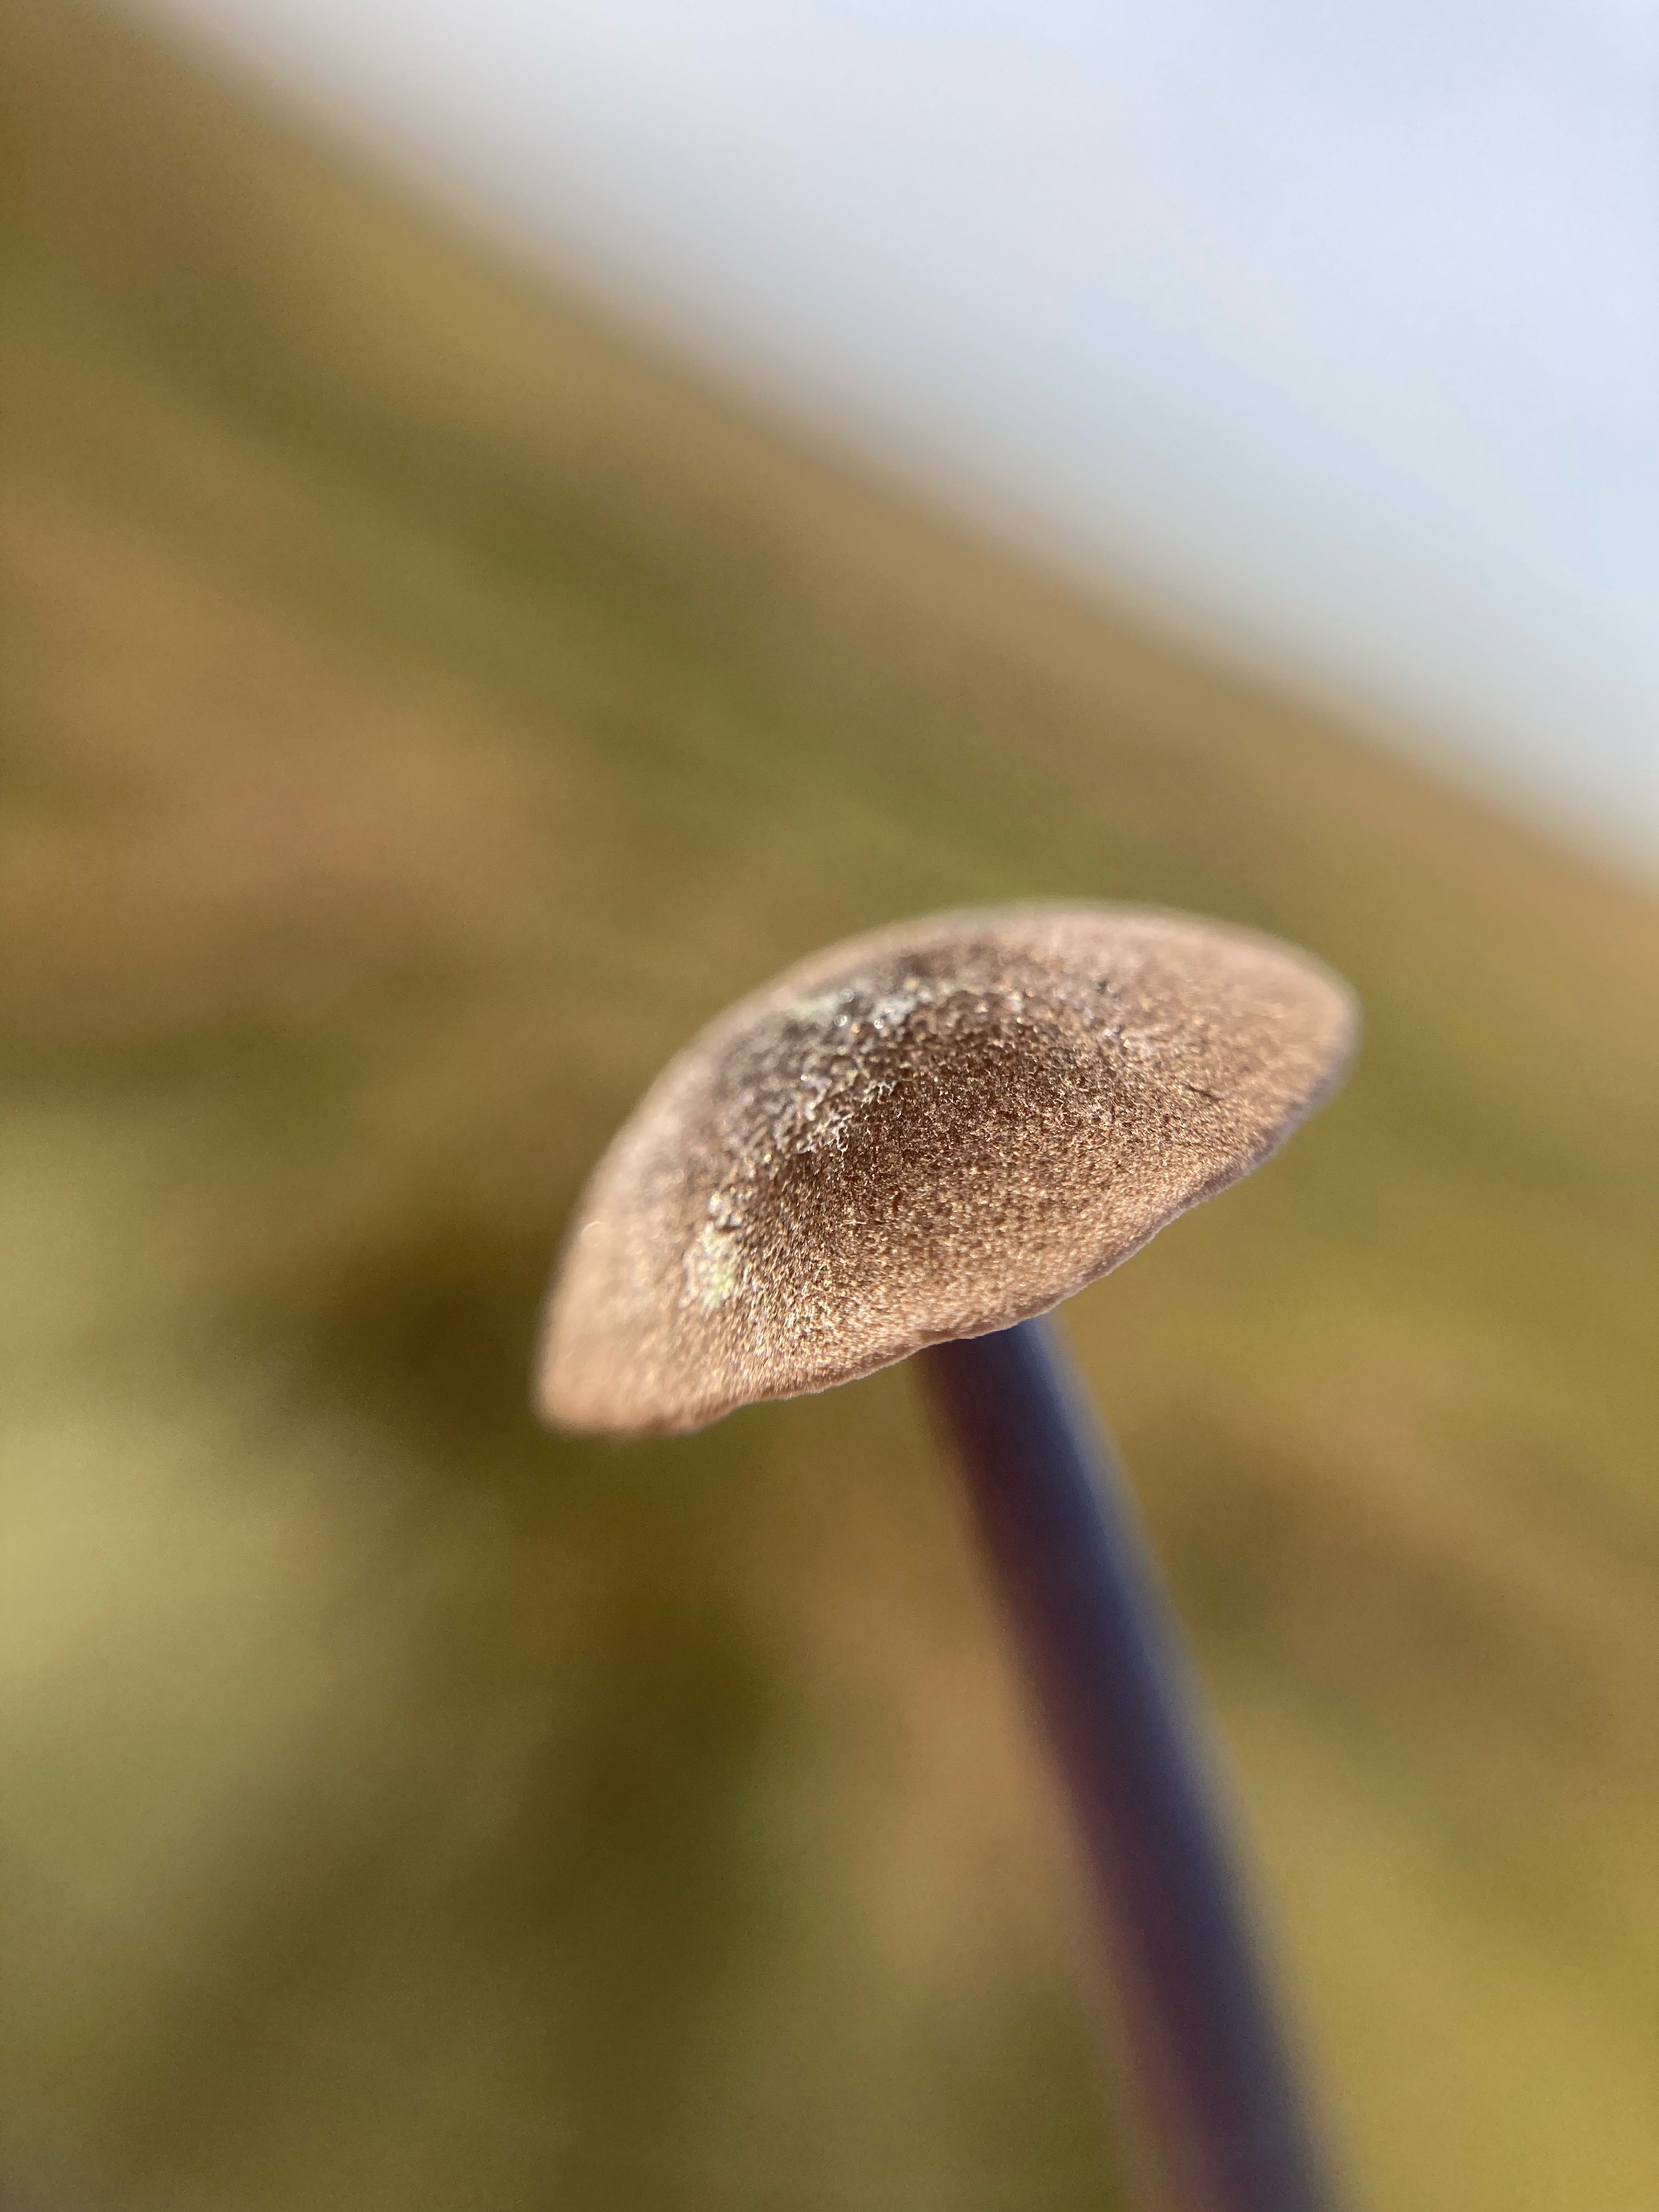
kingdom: Fungi
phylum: Basidiomycota
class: Agaricomycetes
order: Agaricales
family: Entolomataceae
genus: Entoloma
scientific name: Entoloma
